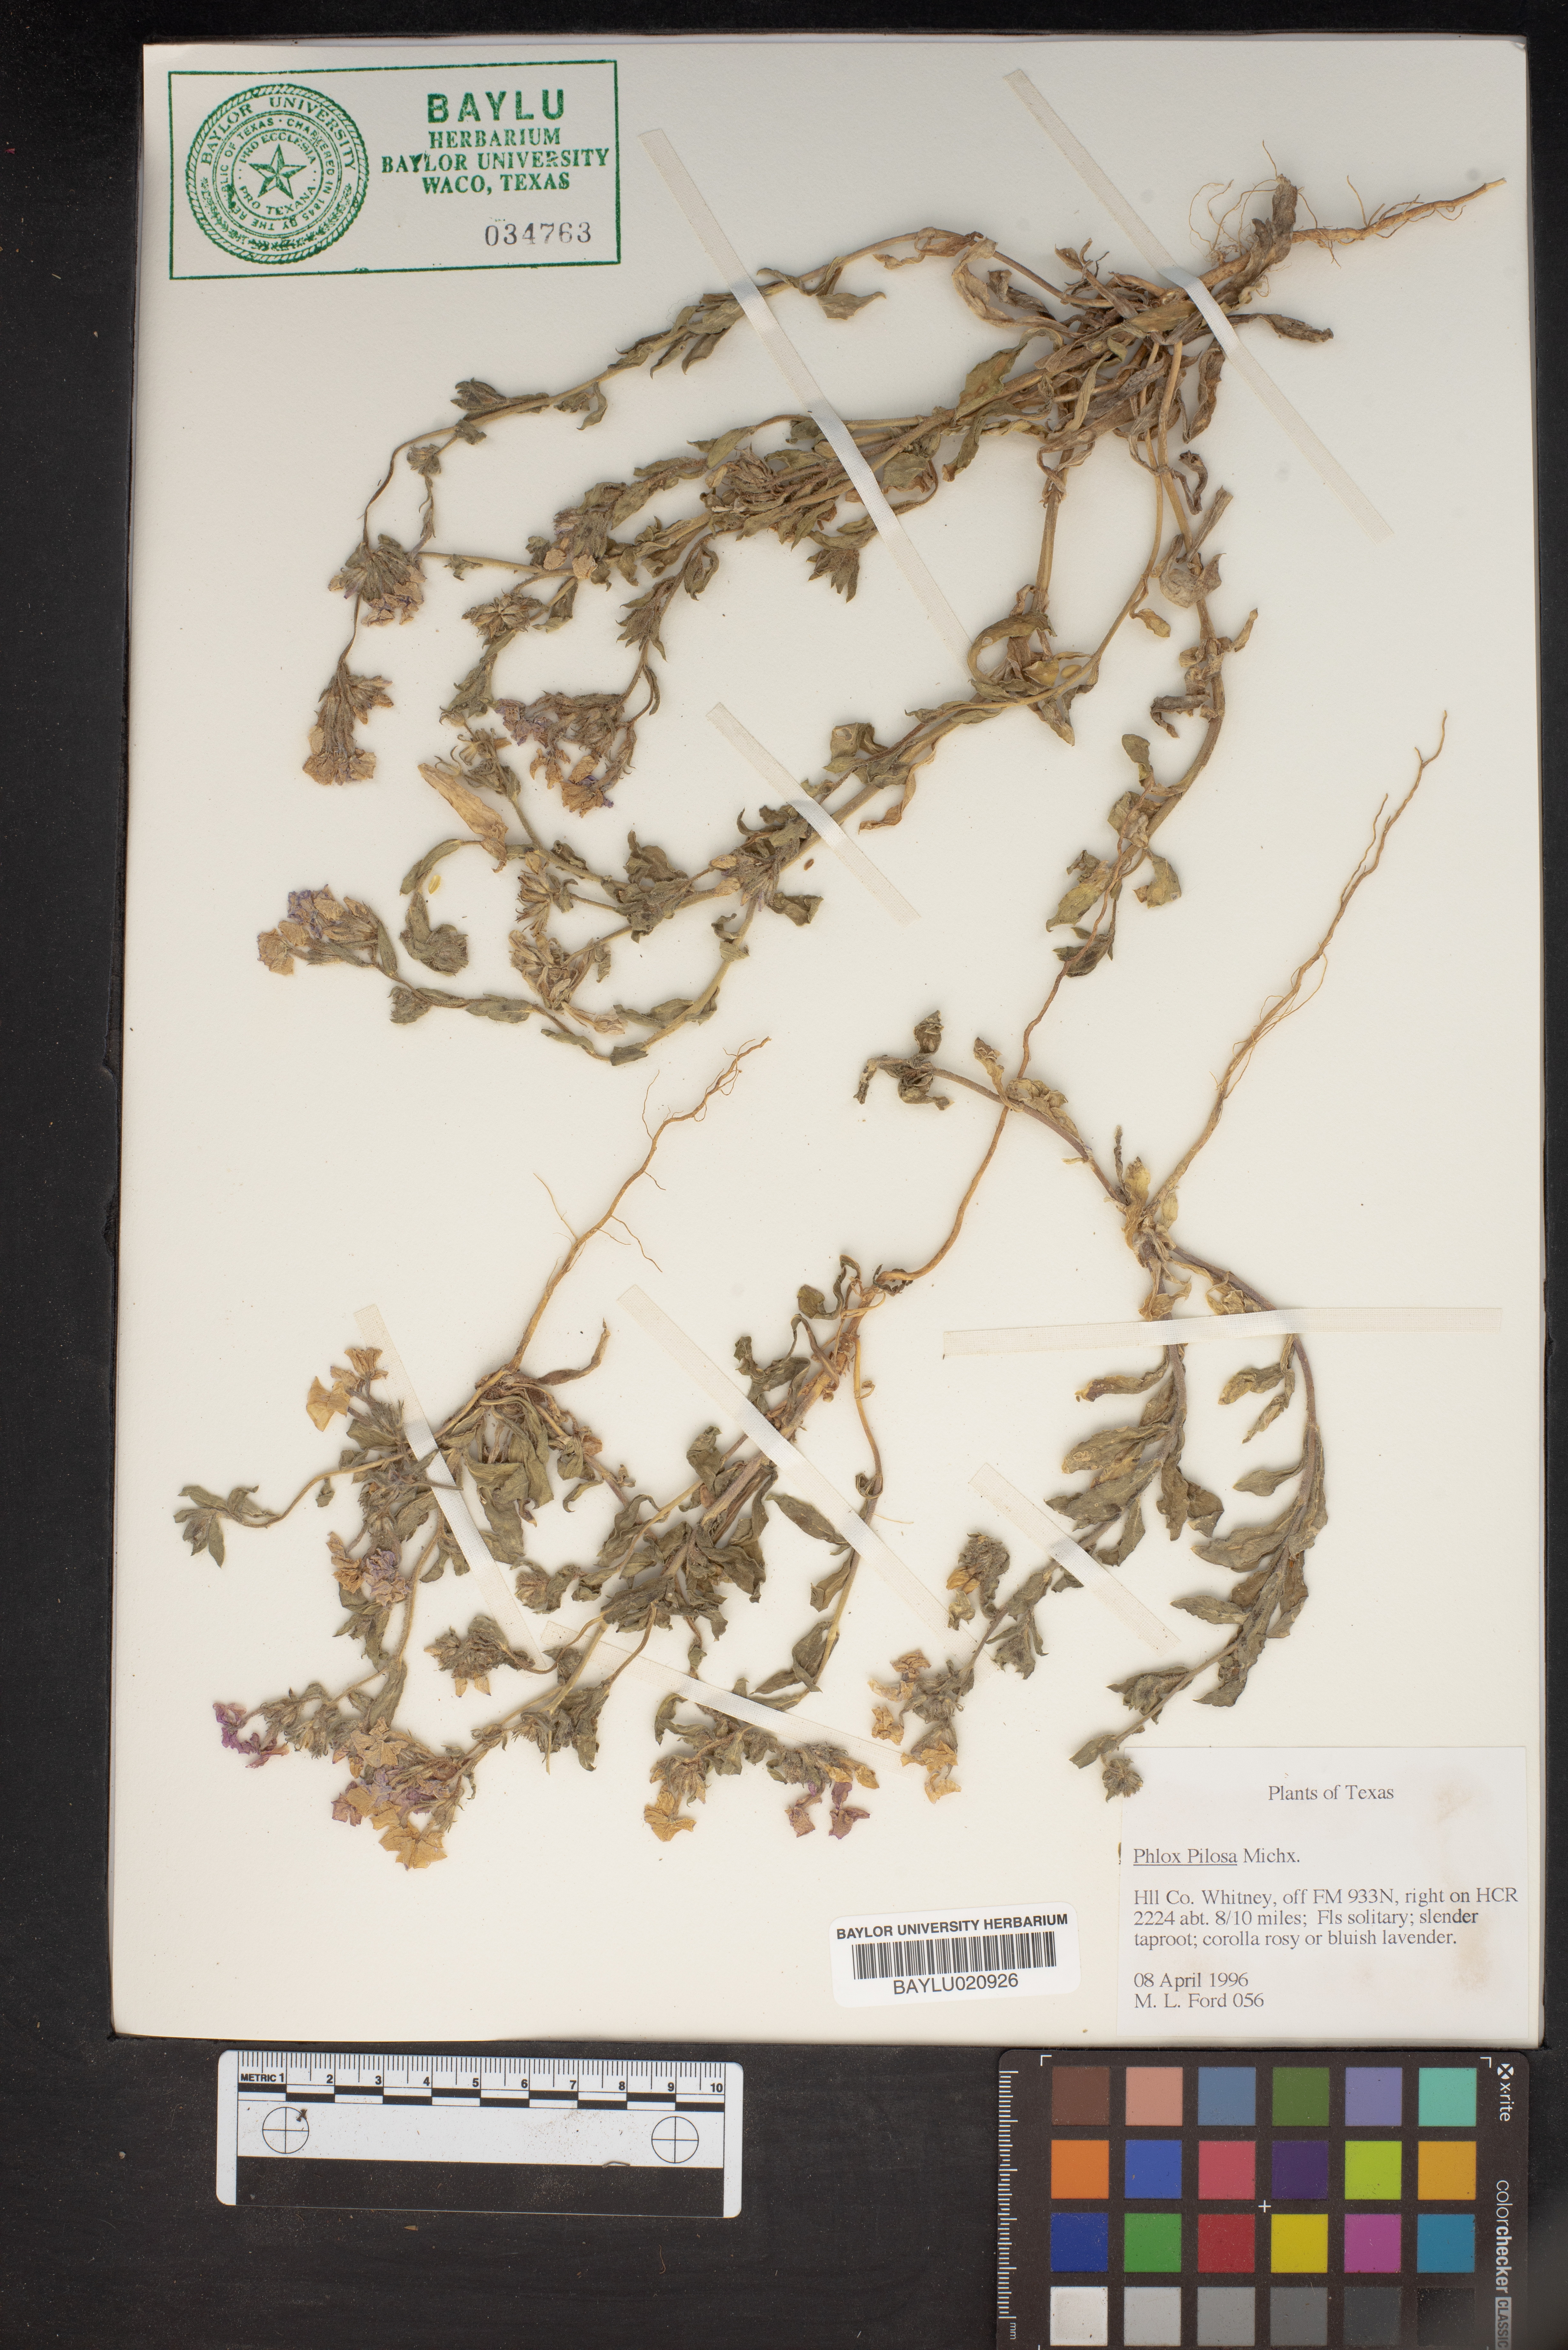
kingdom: Plantae
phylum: Tracheophyta
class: Magnoliopsida
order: Ericales
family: Polemoniaceae
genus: Phlox
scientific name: Phlox pilosa
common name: Prairie phlox
